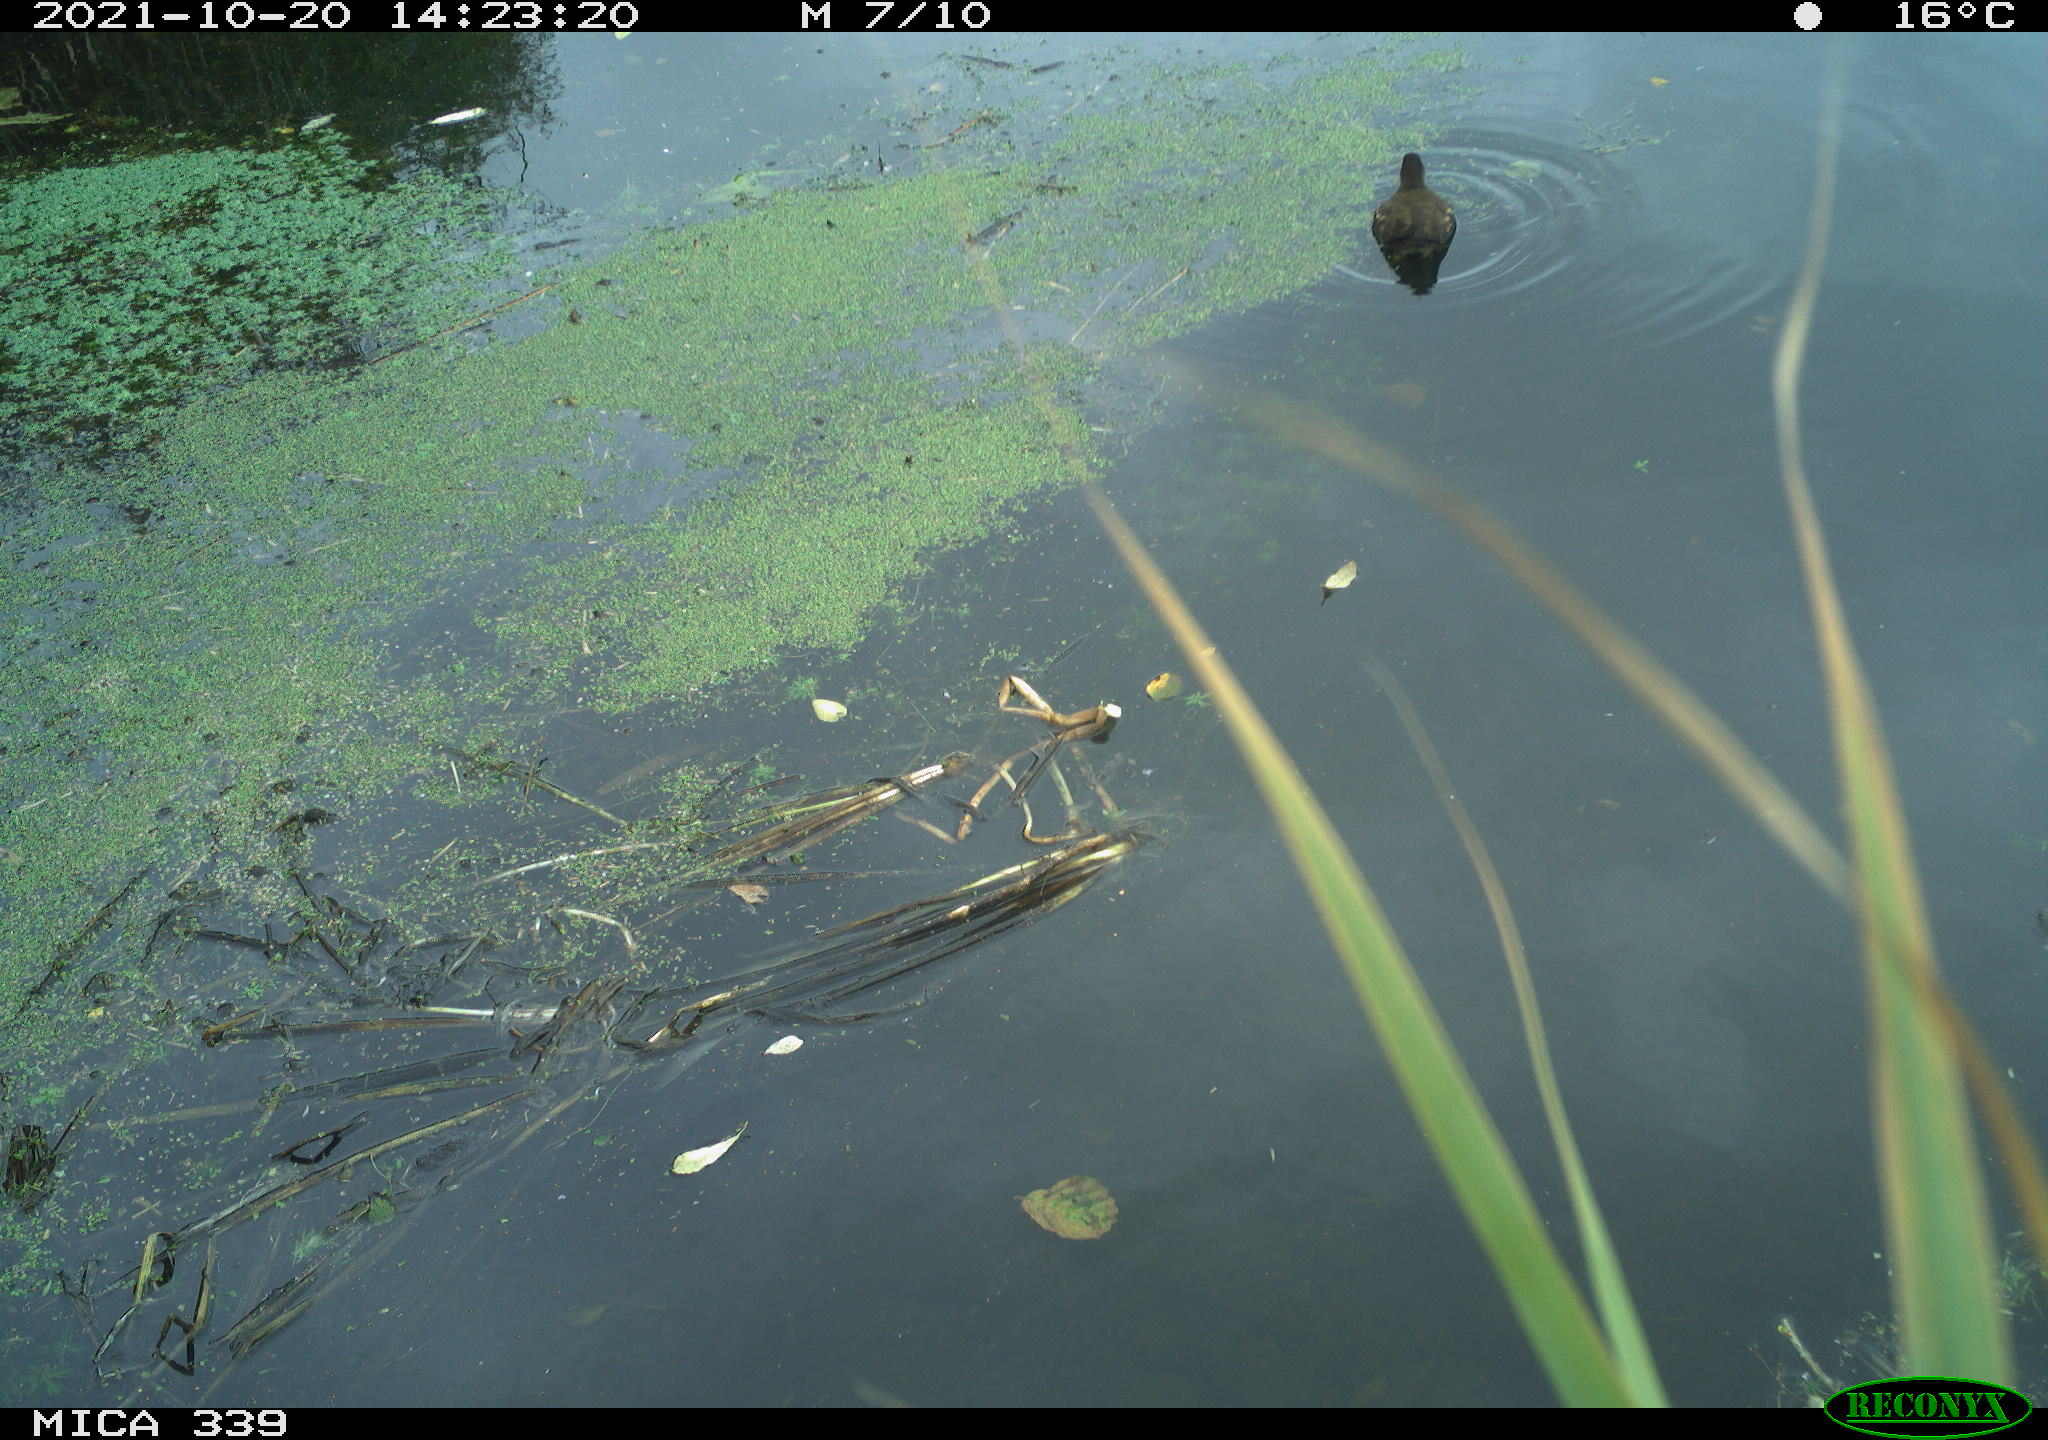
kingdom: Animalia
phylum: Chordata
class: Aves
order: Gruiformes
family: Rallidae
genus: Gallinula
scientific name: Gallinula chloropus
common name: Common moorhen
